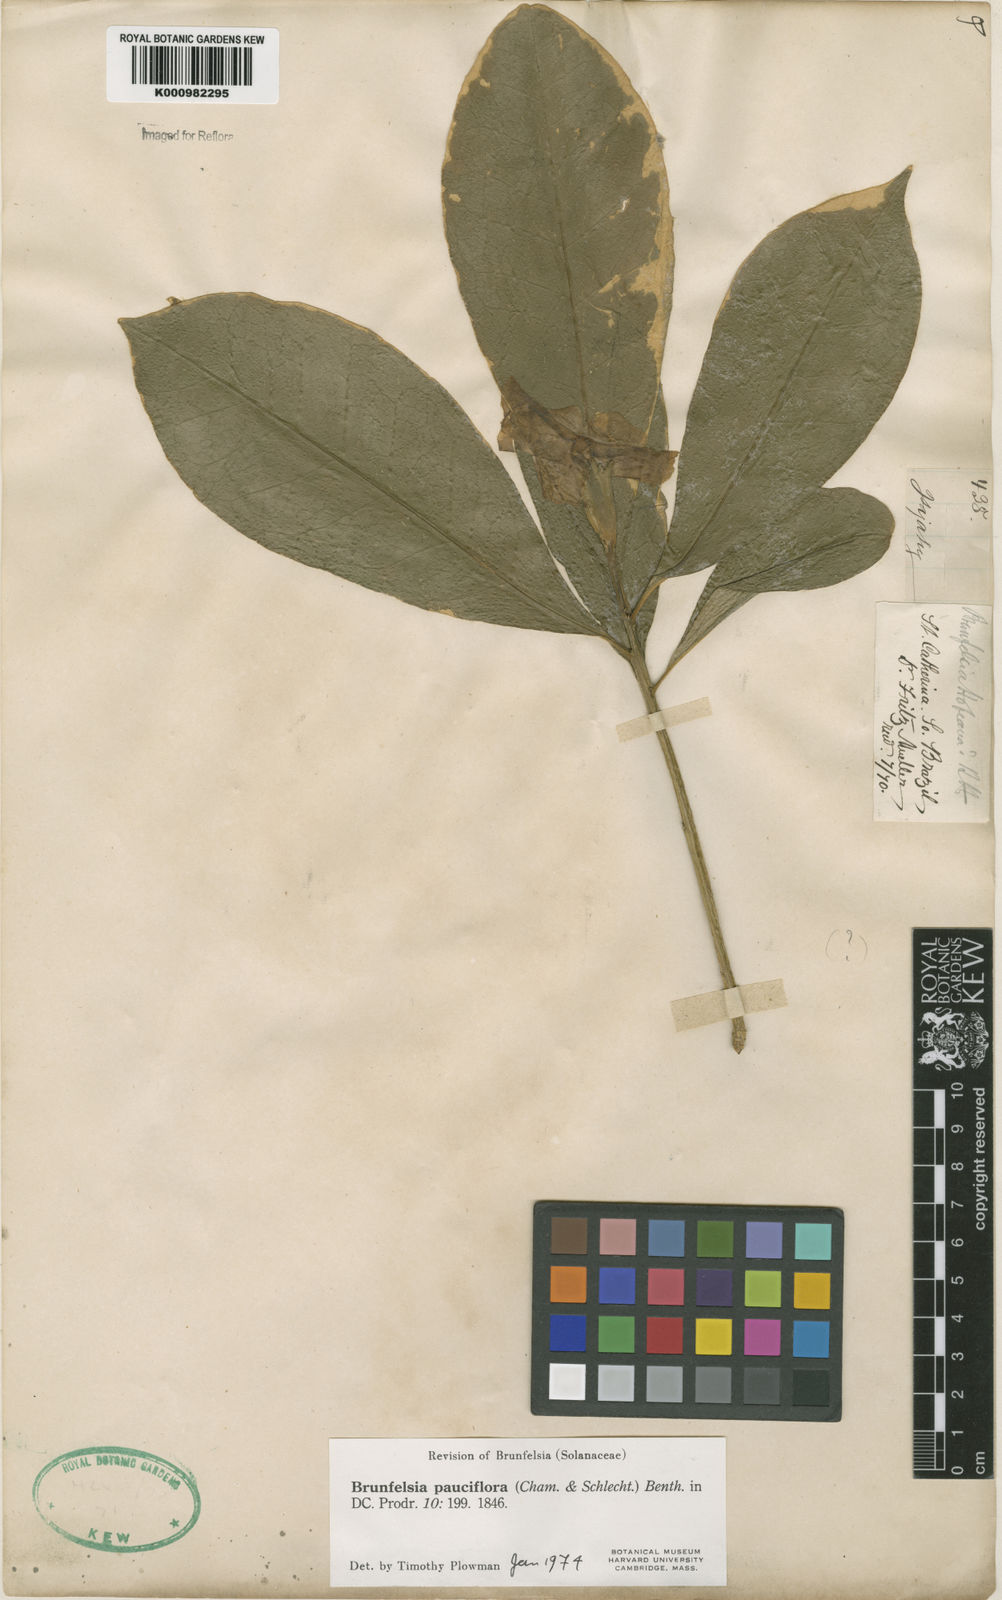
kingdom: Plantae
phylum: Tracheophyta
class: Magnoliopsida
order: Solanales
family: Solanaceae
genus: Brunfelsia
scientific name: Brunfelsia pauciflora
